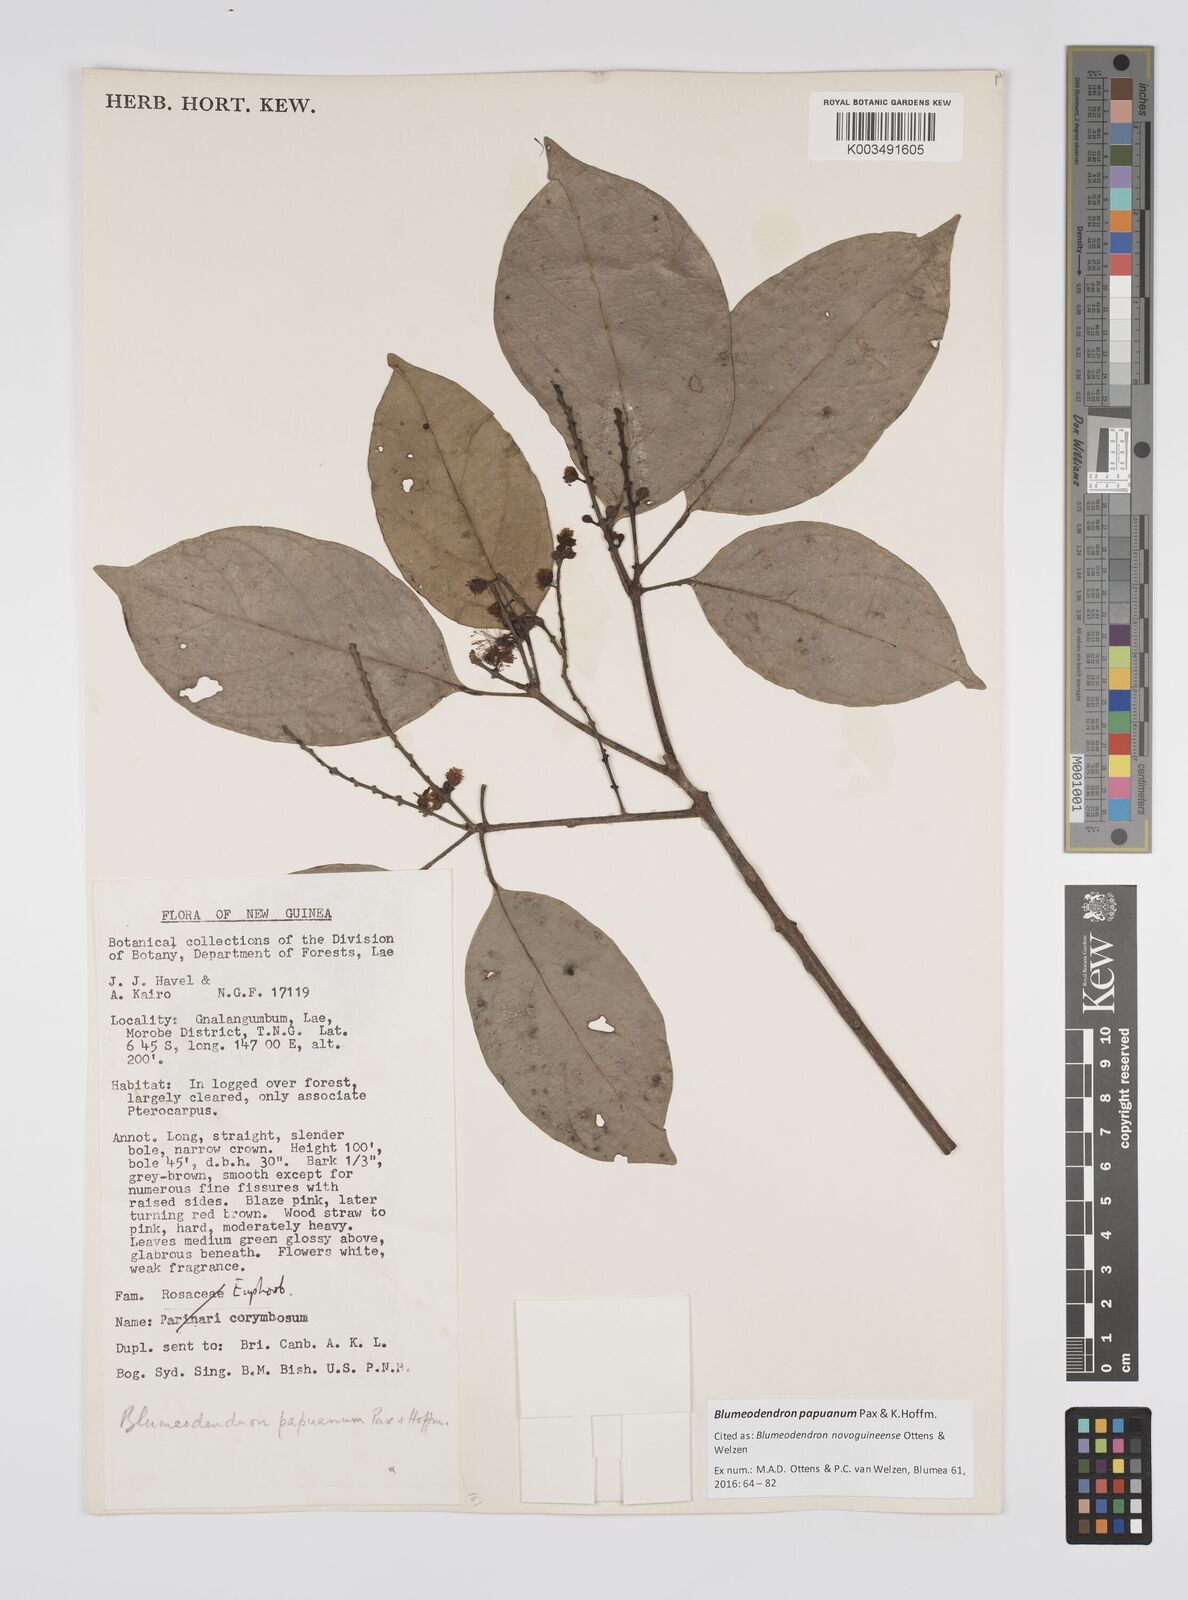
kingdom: Plantae
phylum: Tracheophyta
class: Magnoliopsida
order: Malpighiales
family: Euphorbiaceae
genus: Blumeodendron
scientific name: Blumeodendron papuanum
